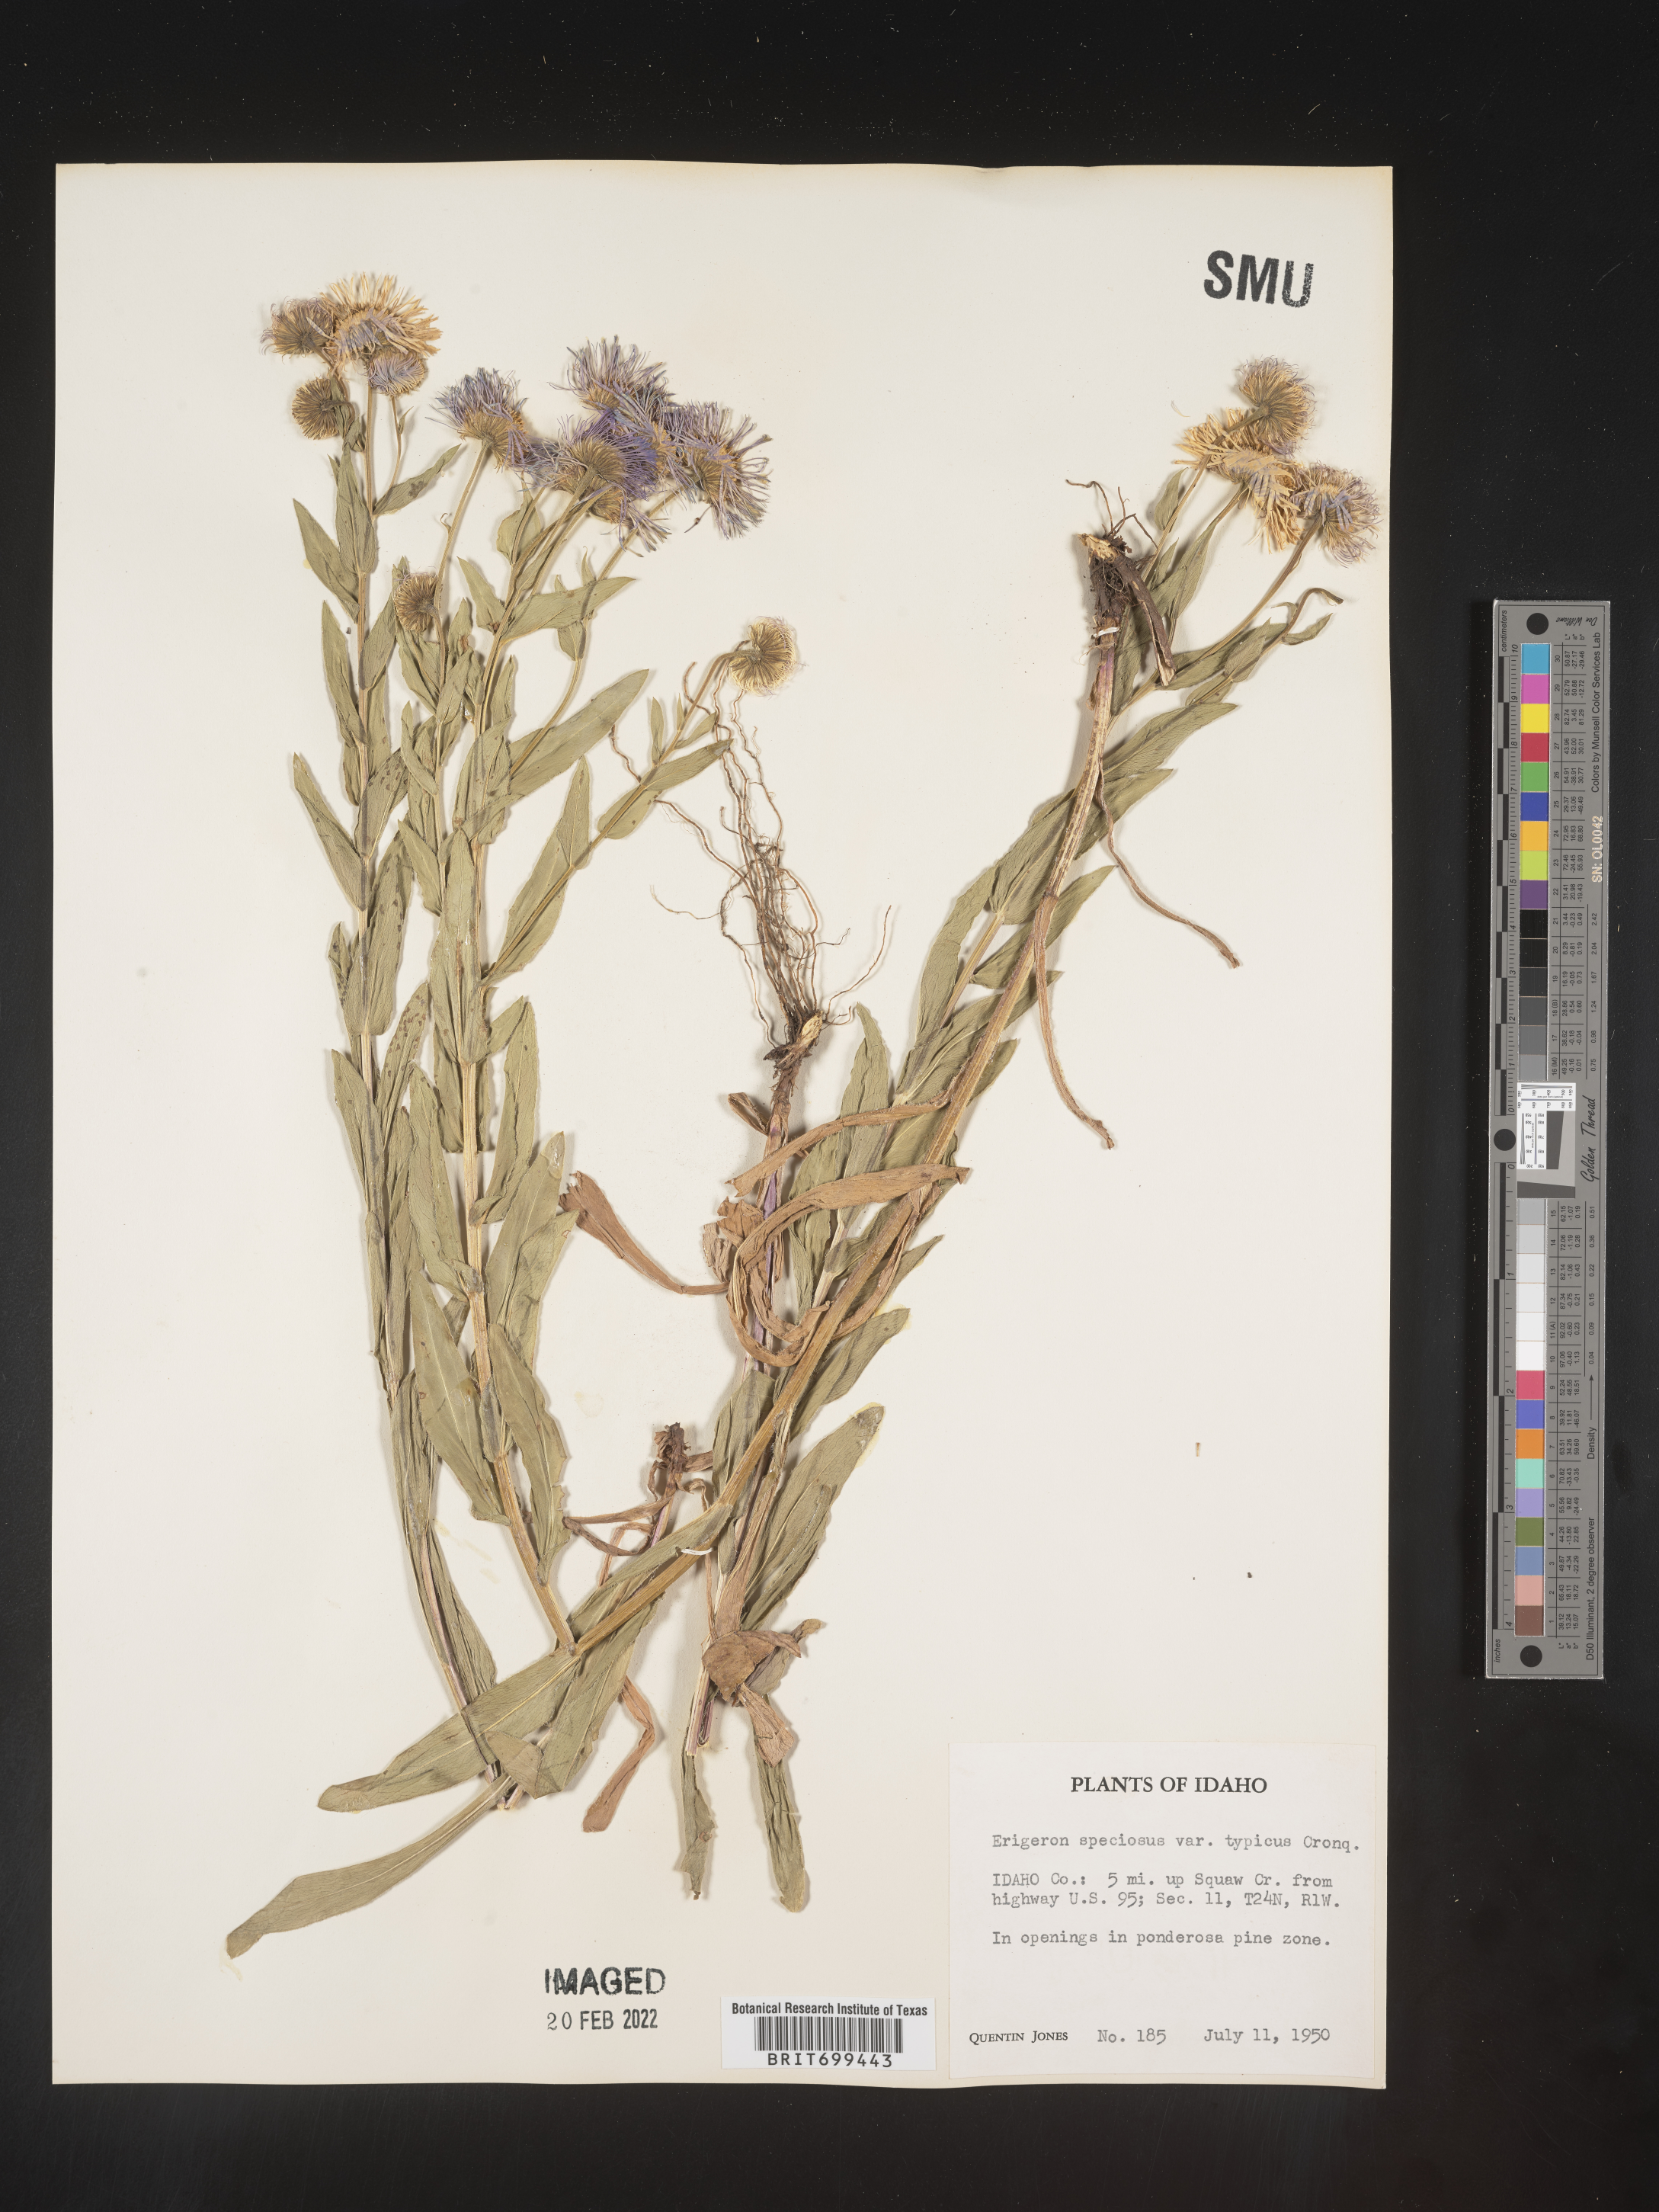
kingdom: Plantae
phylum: Tracheophyta
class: Magnoliopsida
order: Asterales
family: Asteraceae
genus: Erigeron
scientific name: Erigeron speciosus
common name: Aspen fleabane
